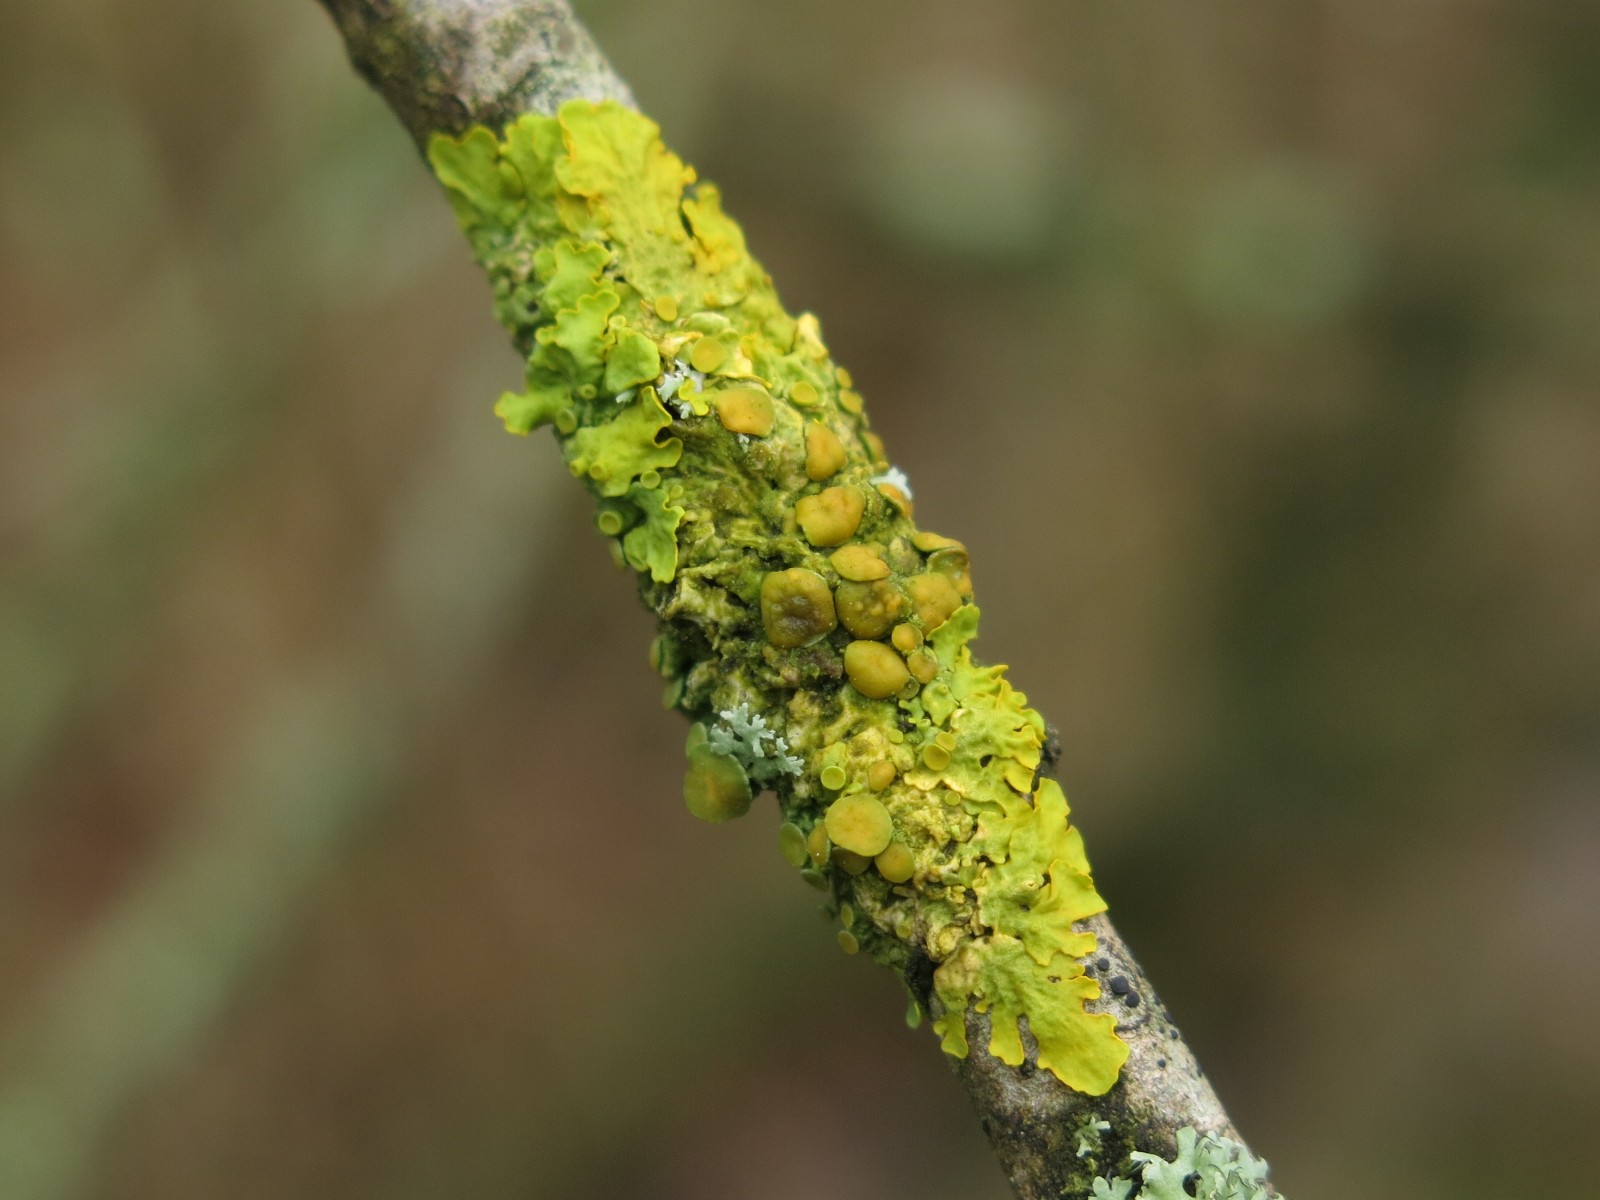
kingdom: Fungi
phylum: Ascomycota
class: Lecanoromycetes
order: Teloschistales
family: Teloschistaceae
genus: Xanthoria
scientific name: Xanthoria parietina
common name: almindelig væggelav
